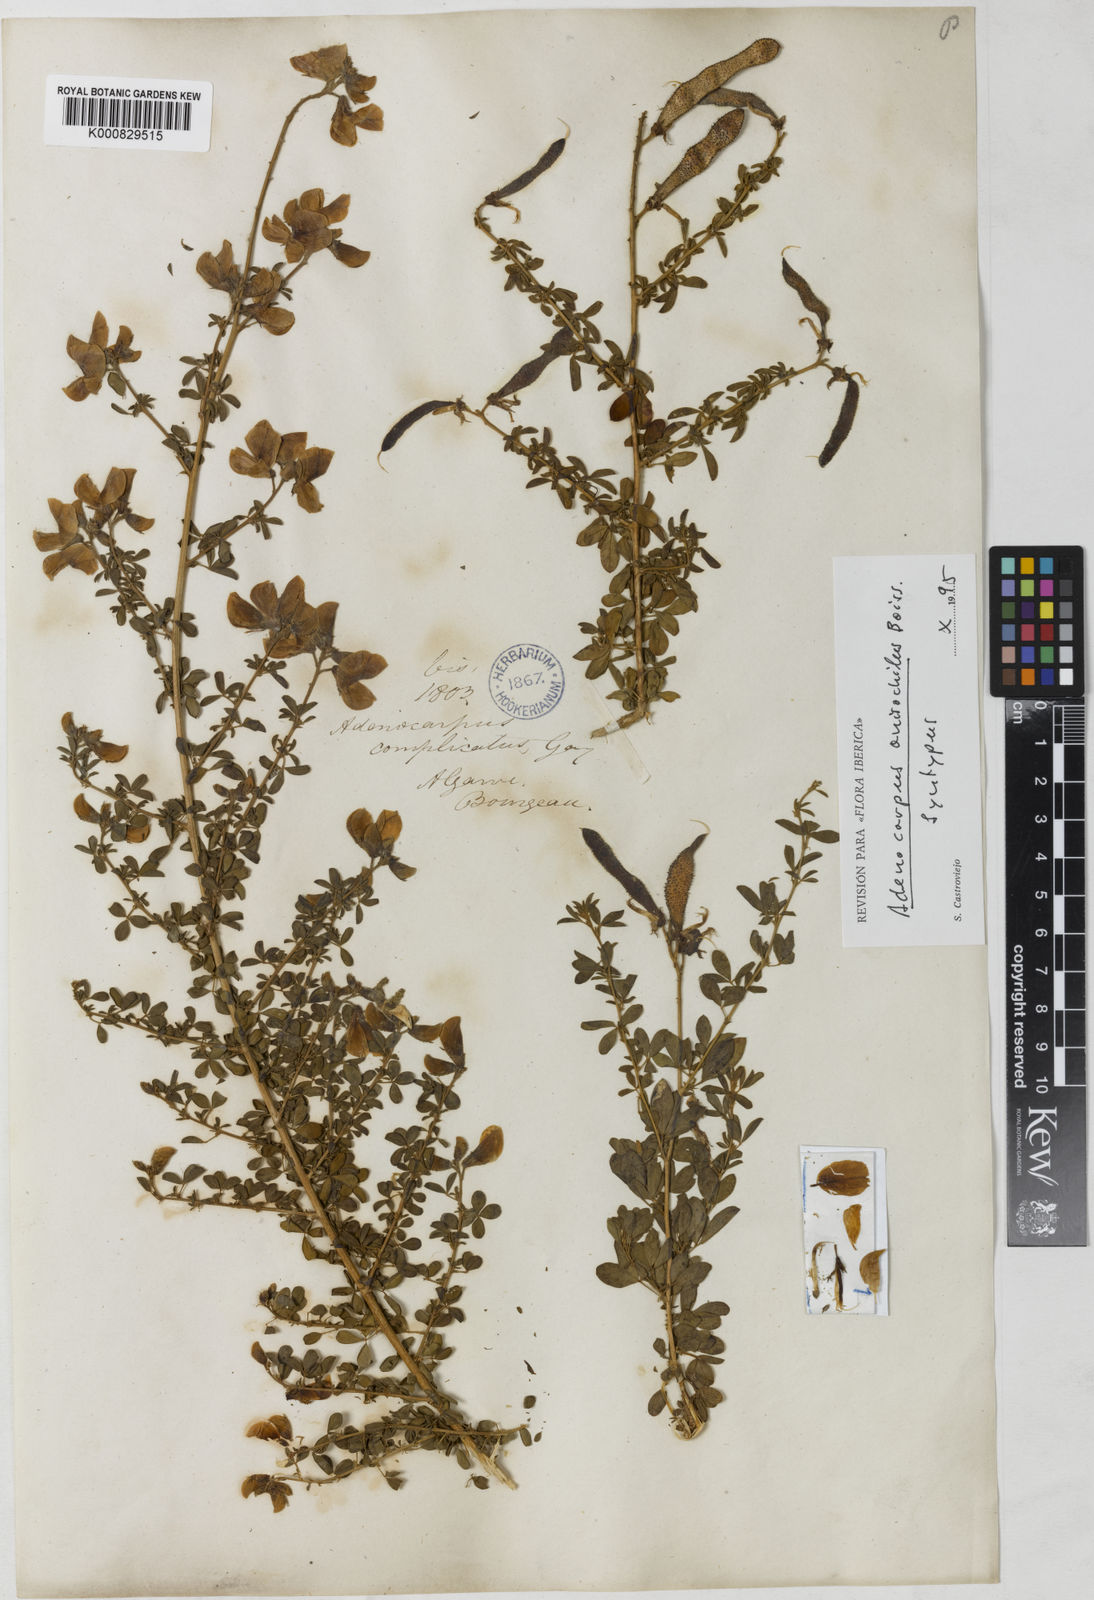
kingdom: Plantae
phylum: Tracheophyta
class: Magnoliopsida
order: Fabales
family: Fabaceae
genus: Adenocarpus
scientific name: Adenocarpus hispanicus
